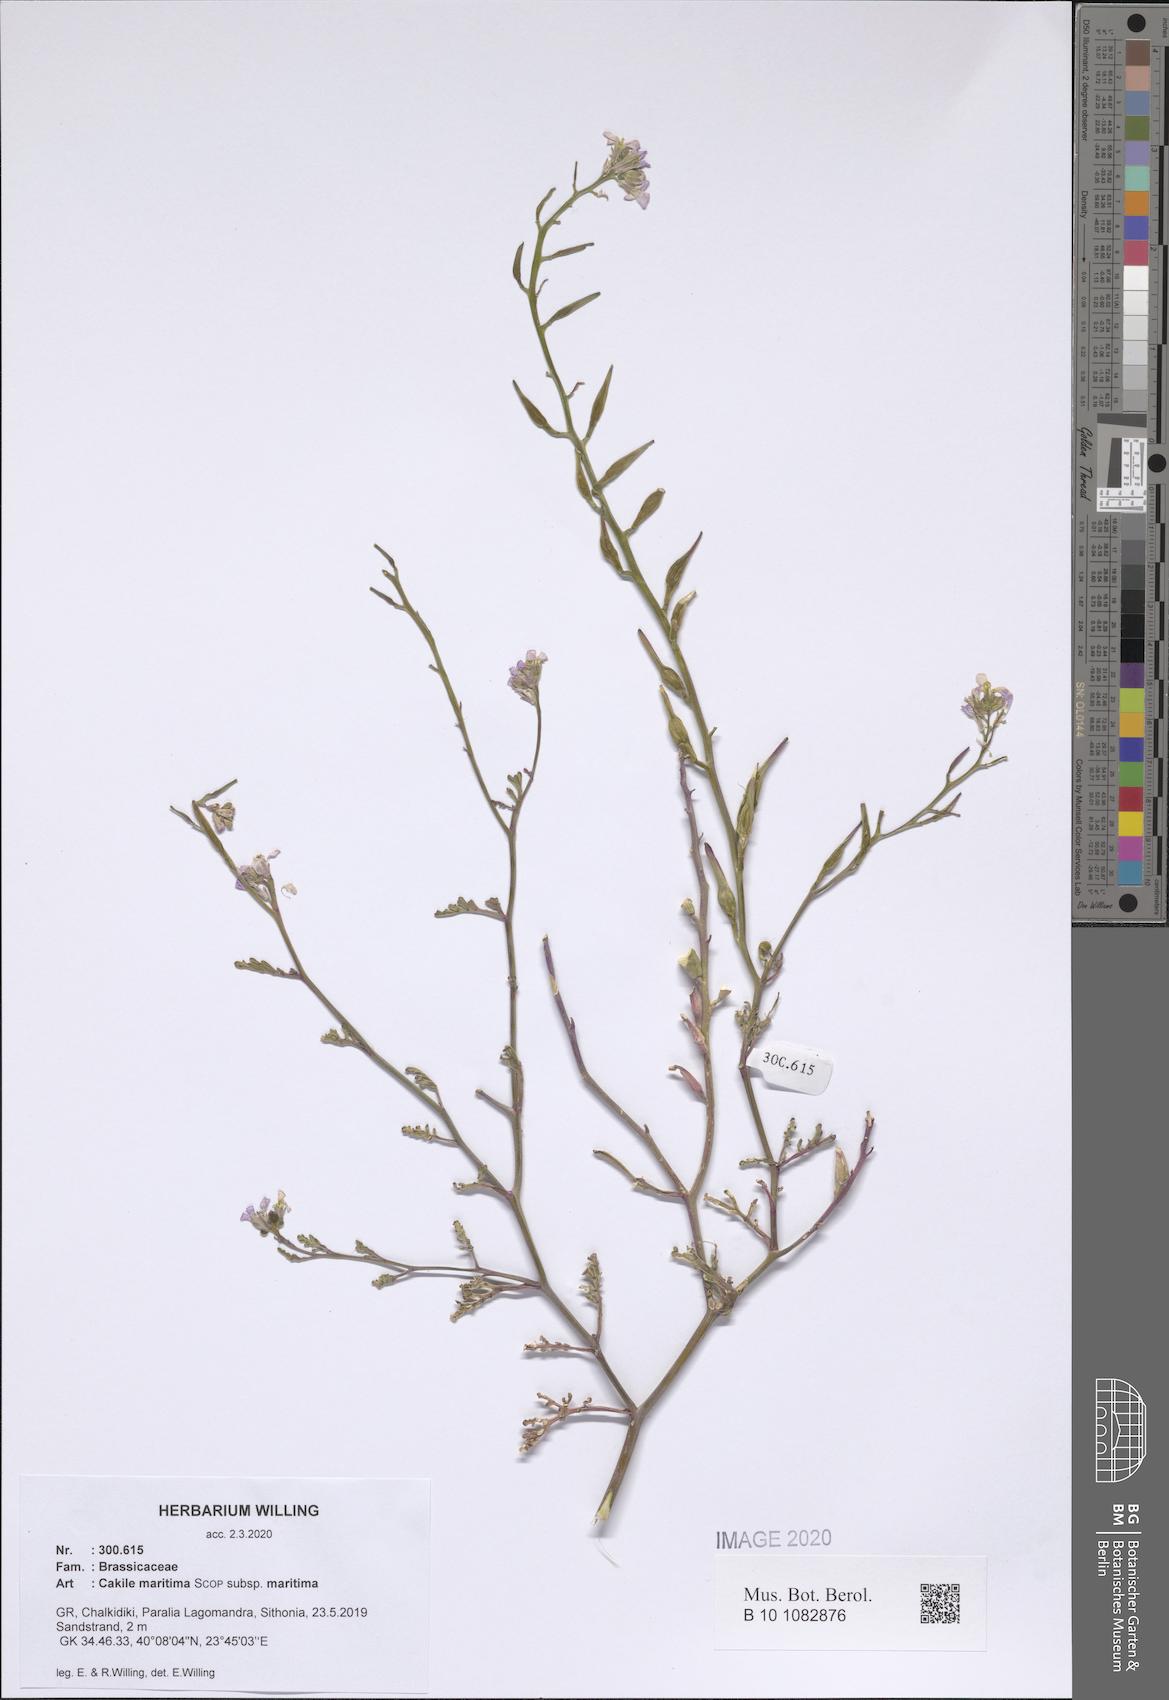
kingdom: Plantae
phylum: Tracheophyta
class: Magnoliopsida
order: Brassicales
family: Brassicaceae
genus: Cakile
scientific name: Cakile maritima
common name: Sea rocket
